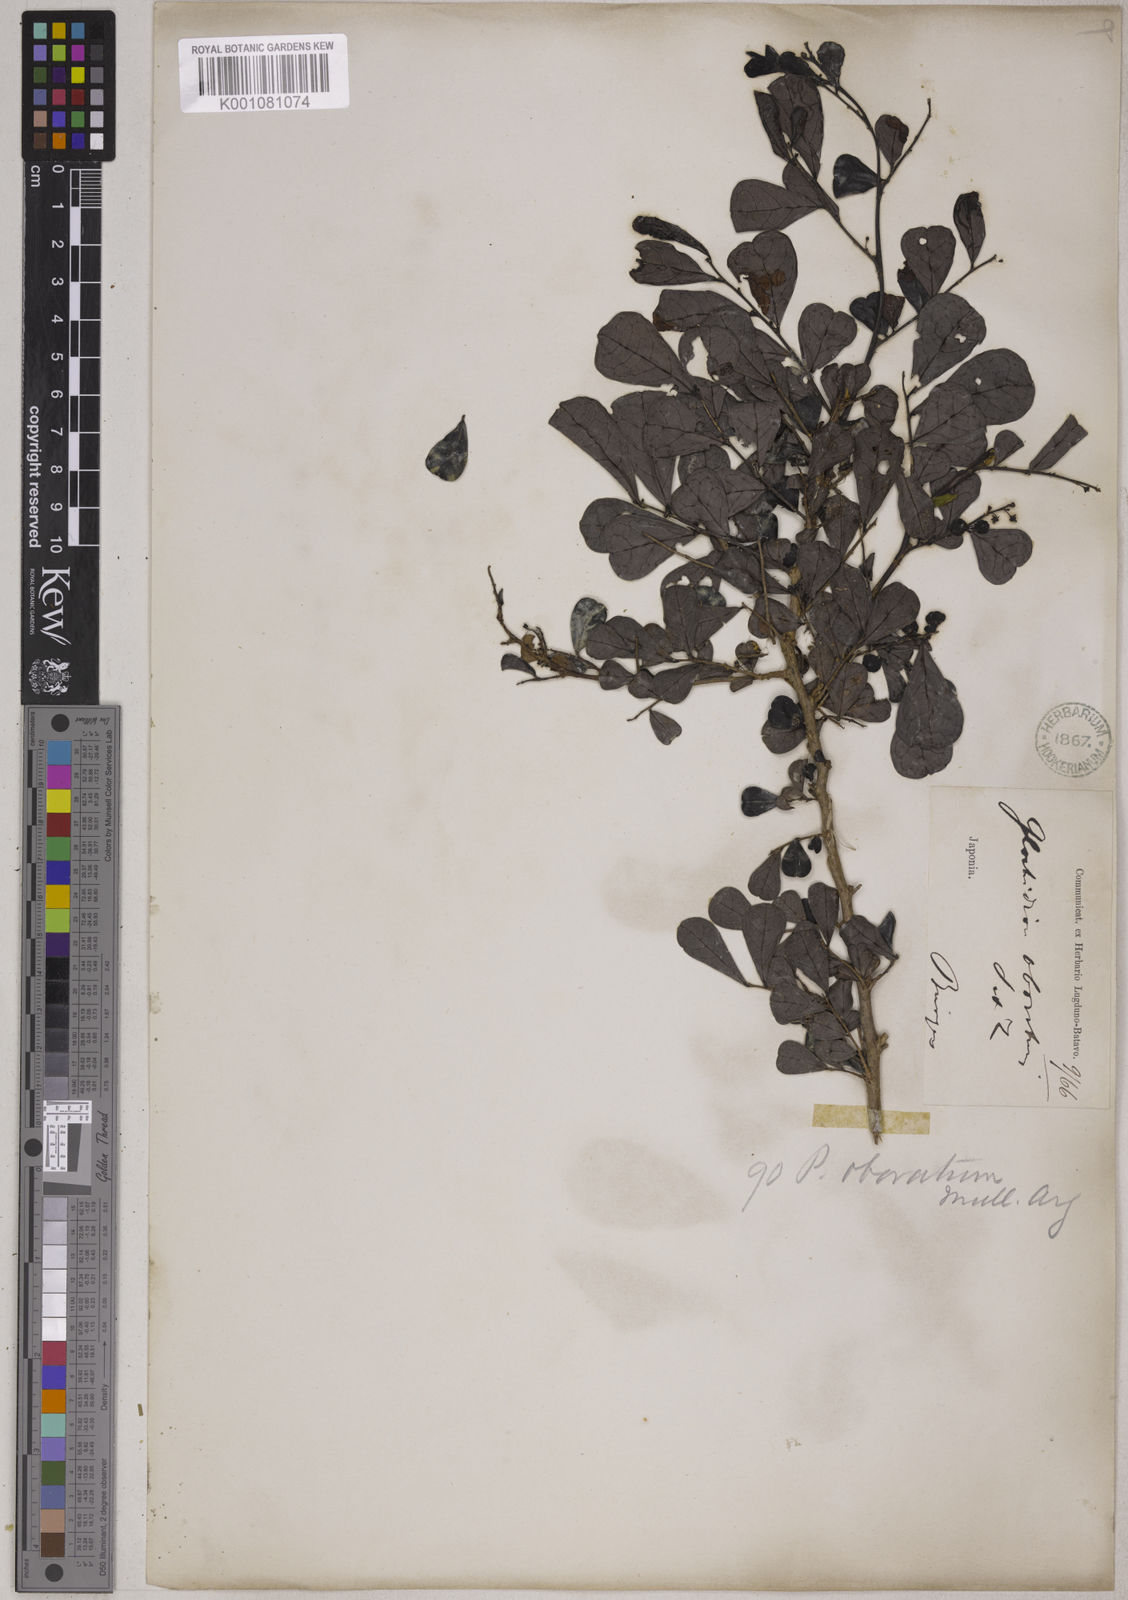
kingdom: Plantae
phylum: Tracheophyta
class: Magnoliopsida
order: Malpighiales
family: Phyllanthaceae
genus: Glochidion
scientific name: Glochidion obovatum
